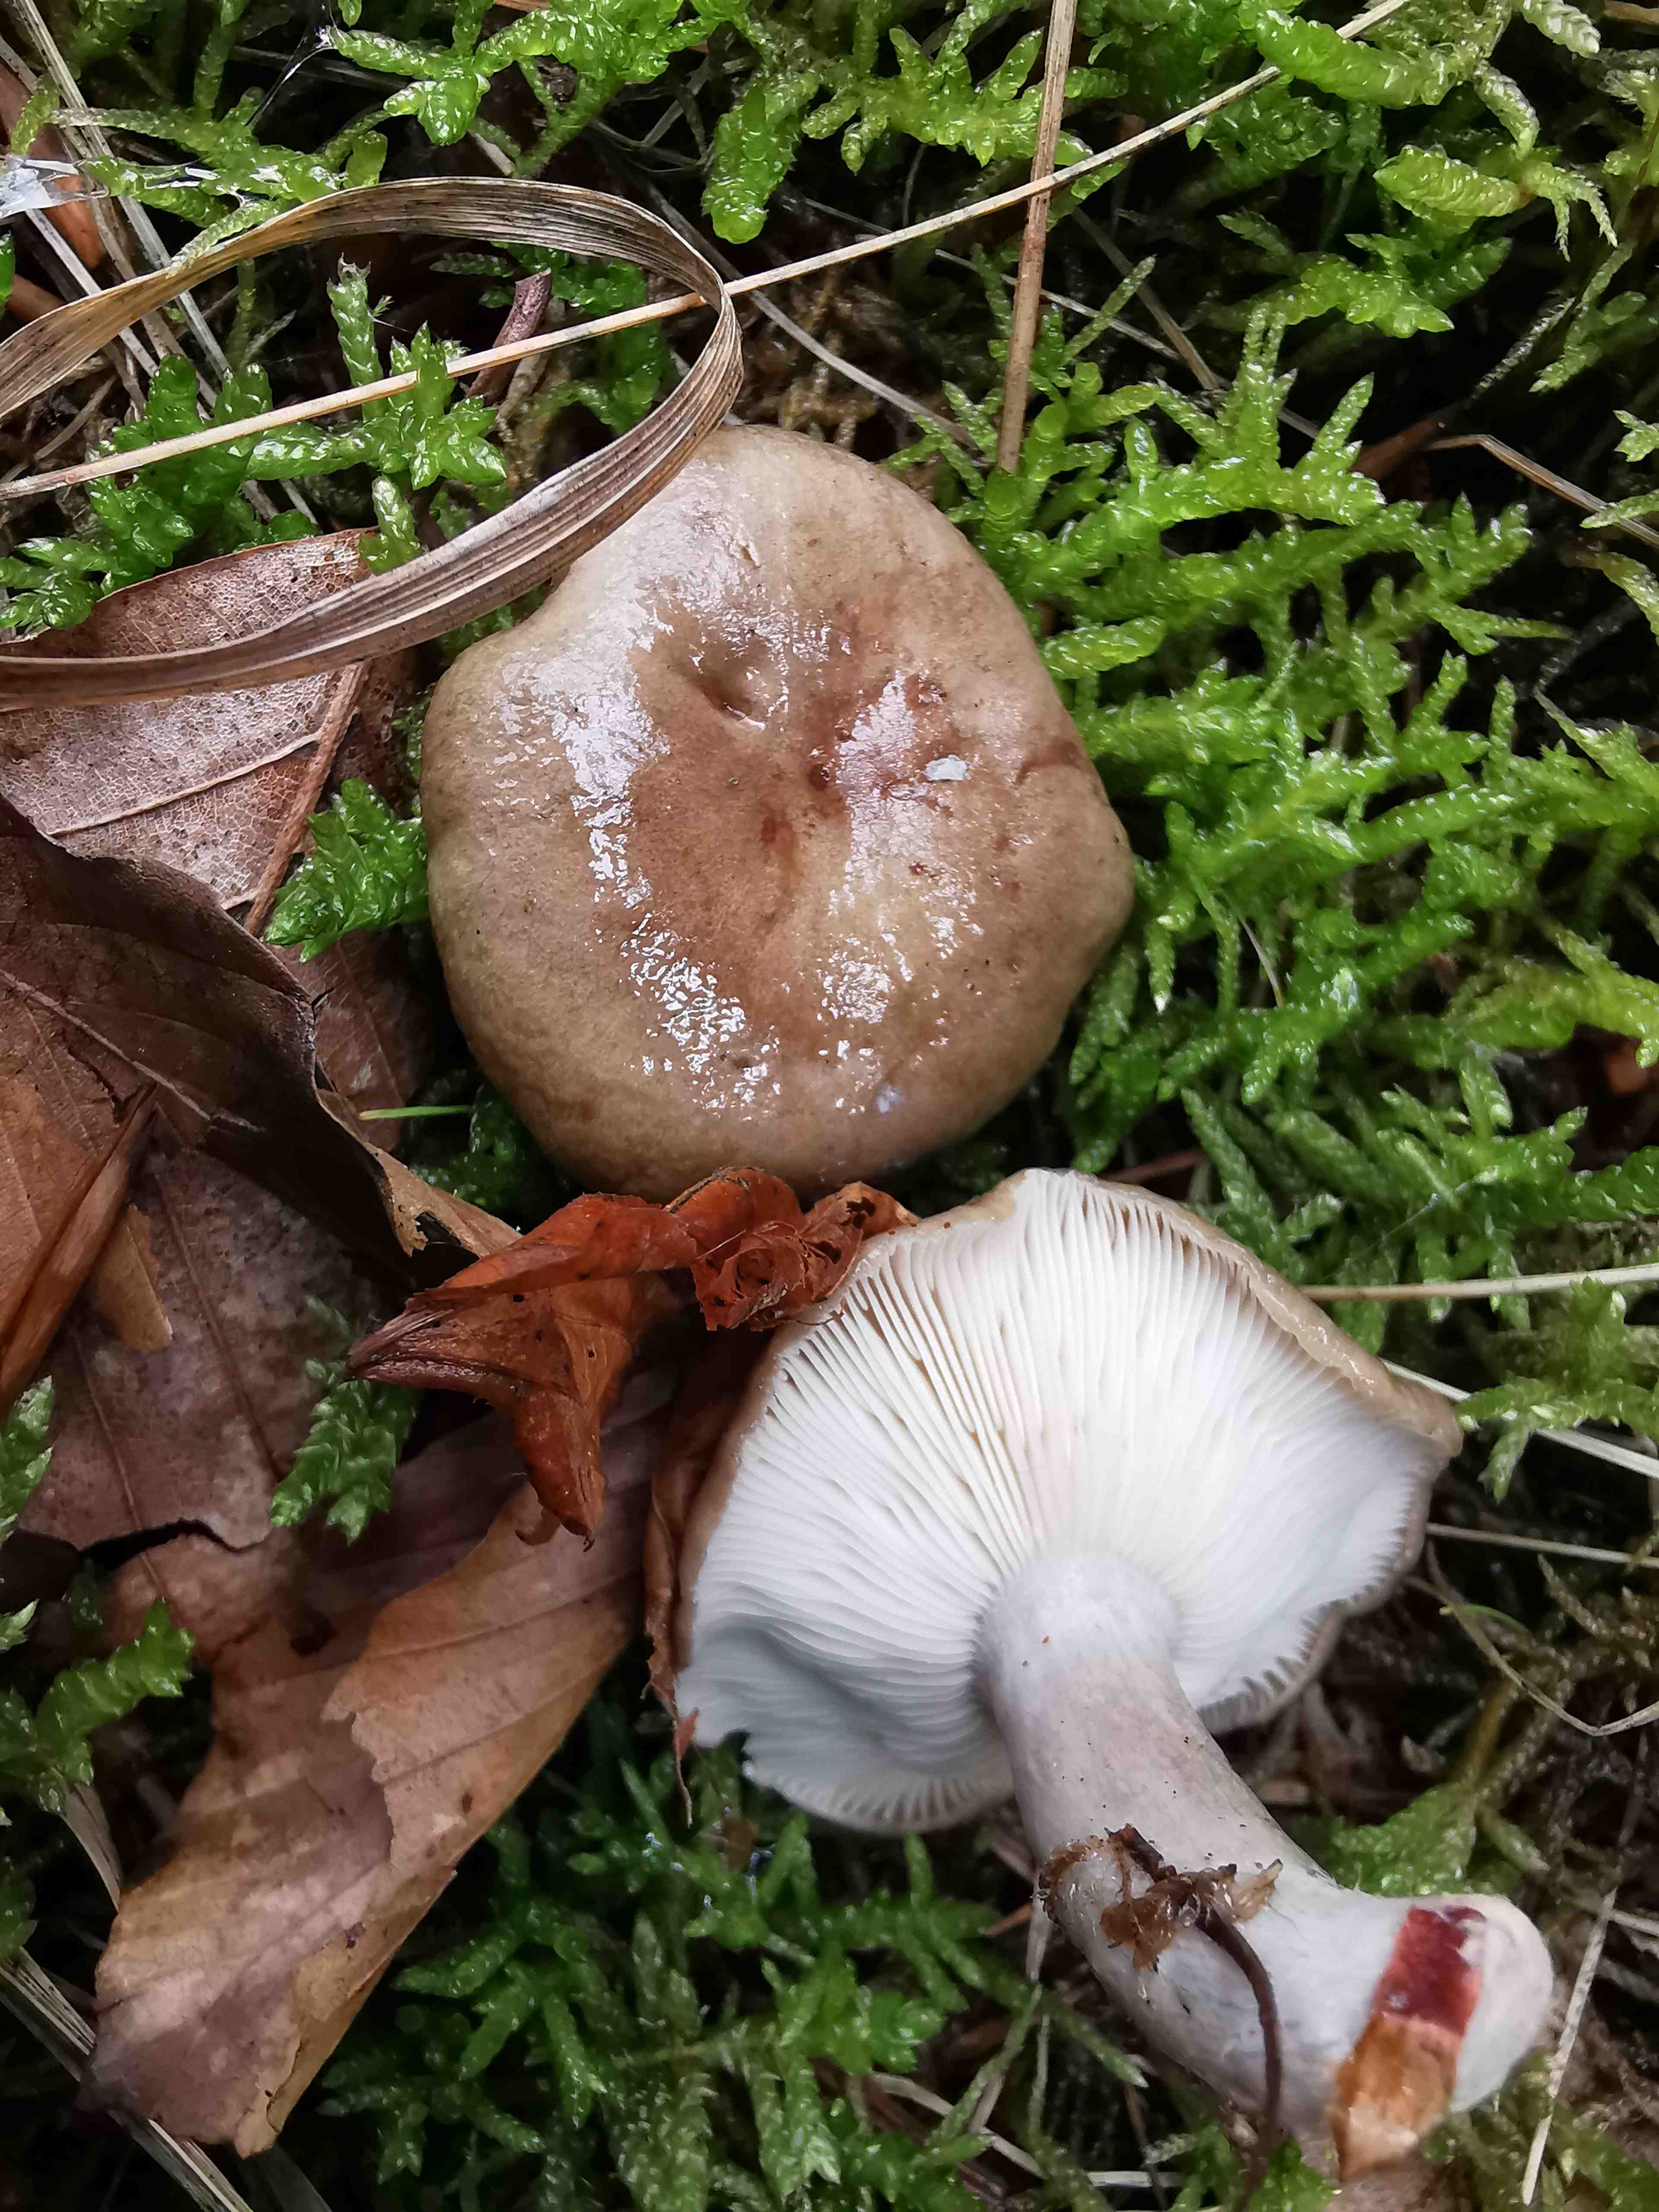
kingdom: Fungi
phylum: Basidiomycota
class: Agaricomycetes
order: Russulales
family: Russulaceae
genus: Lactarius
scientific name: Lactarius blennius
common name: dråbeplettet mælkehat
